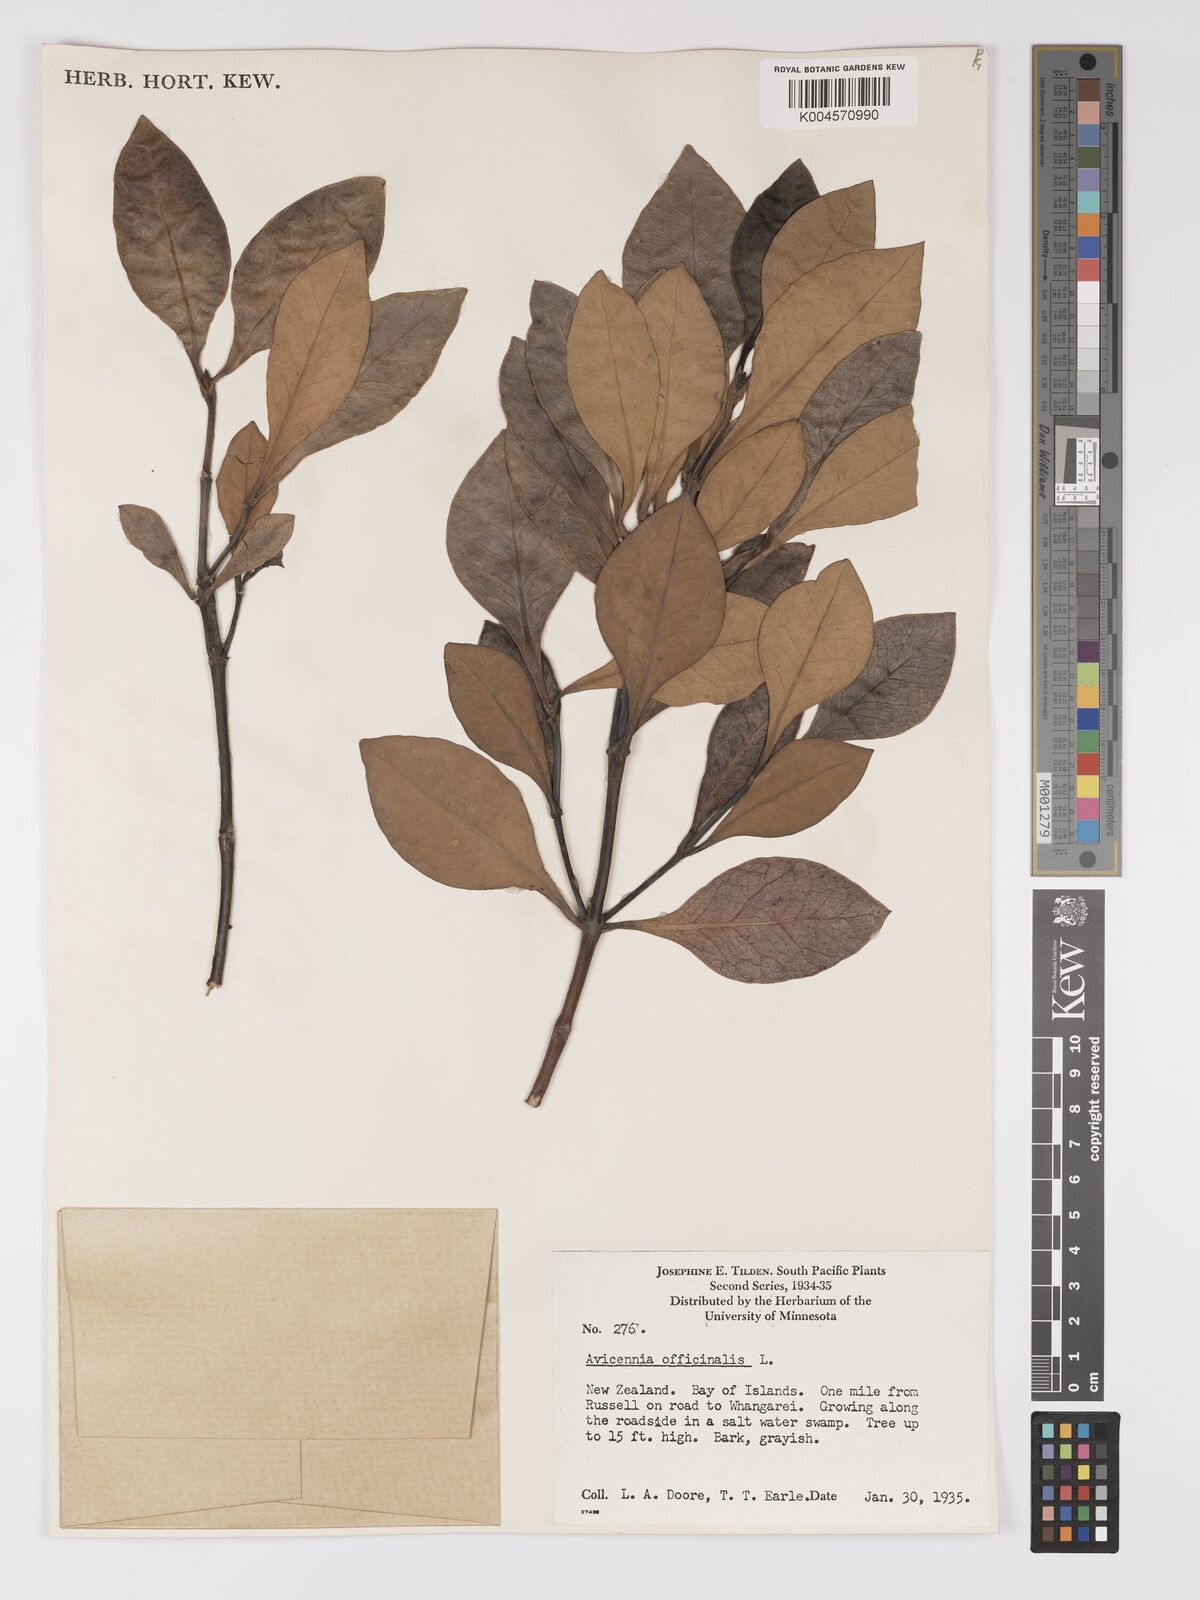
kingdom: Plantae
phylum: Tracheophyta
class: Magnoliopsida
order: Lamiales
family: Acanthaceae
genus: Avicennia
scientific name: Avicennia marina
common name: Gray mangrove
